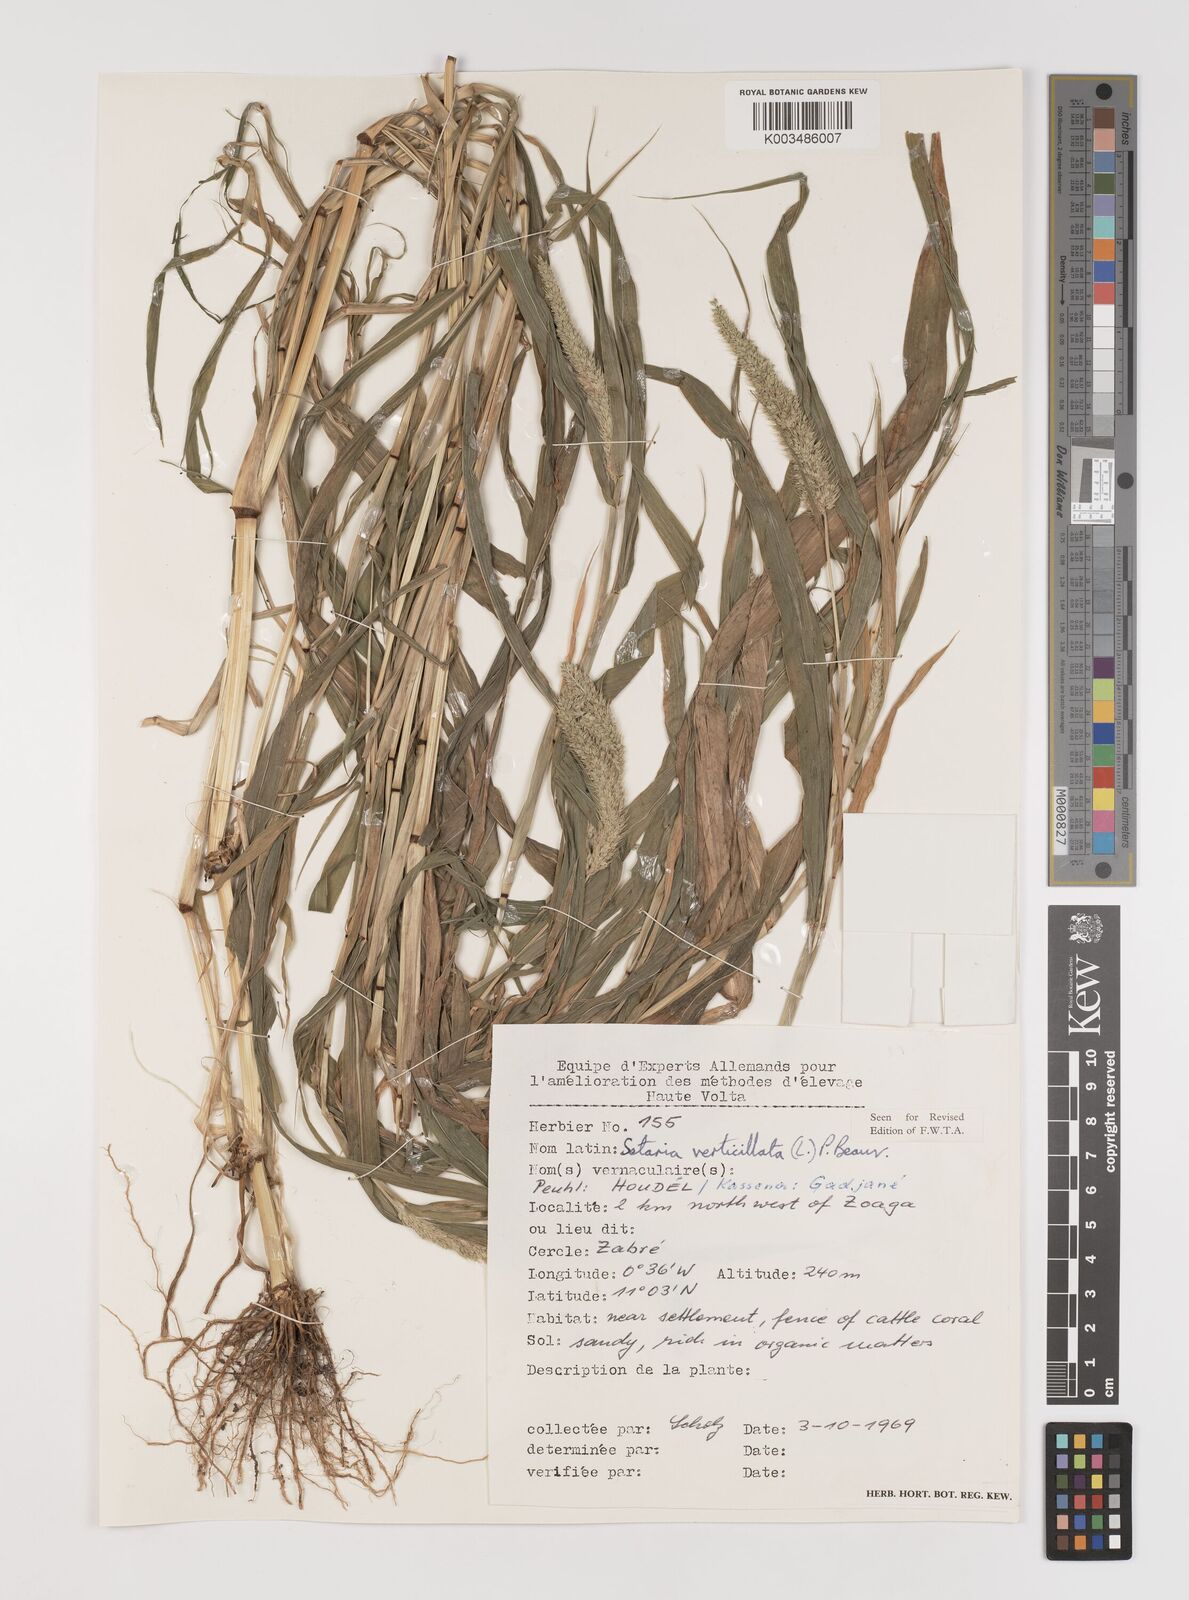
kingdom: Plantae
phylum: Tracheophyta
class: Liliopsida
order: Poales
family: Poaceae
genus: Setaria
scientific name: Setaria verticillata
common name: Hooked bristlegrass
